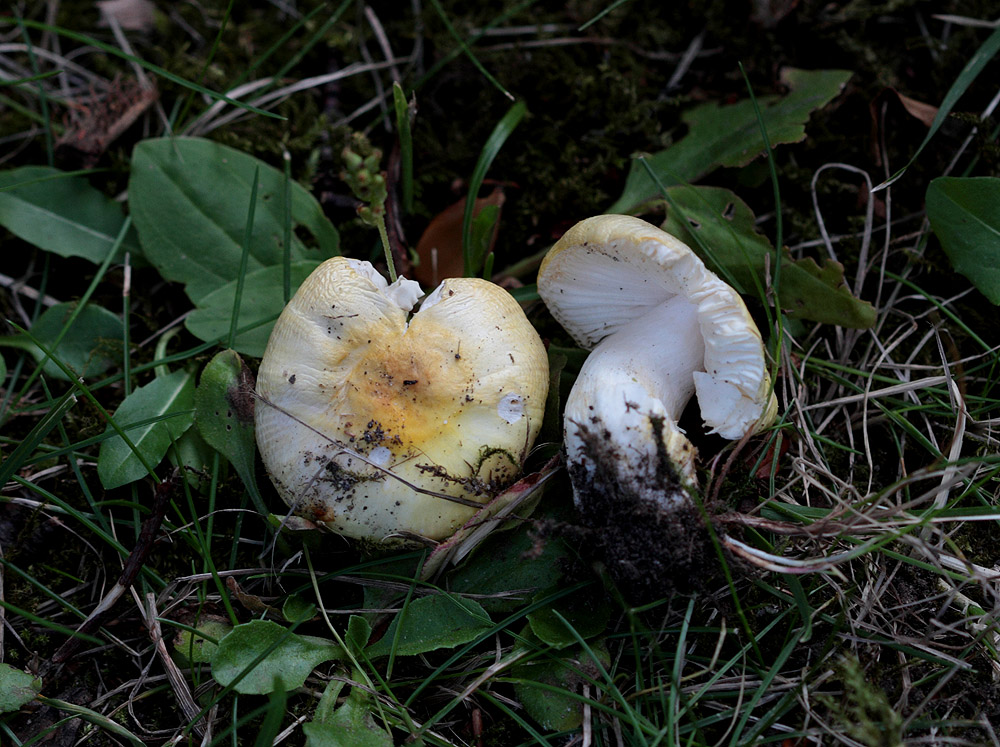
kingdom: Fungi
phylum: Basidiomycota
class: Agaricomycetes
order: Russulales
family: Russulaceae
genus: Russula
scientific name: Russula solaris
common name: sol-skørhat
